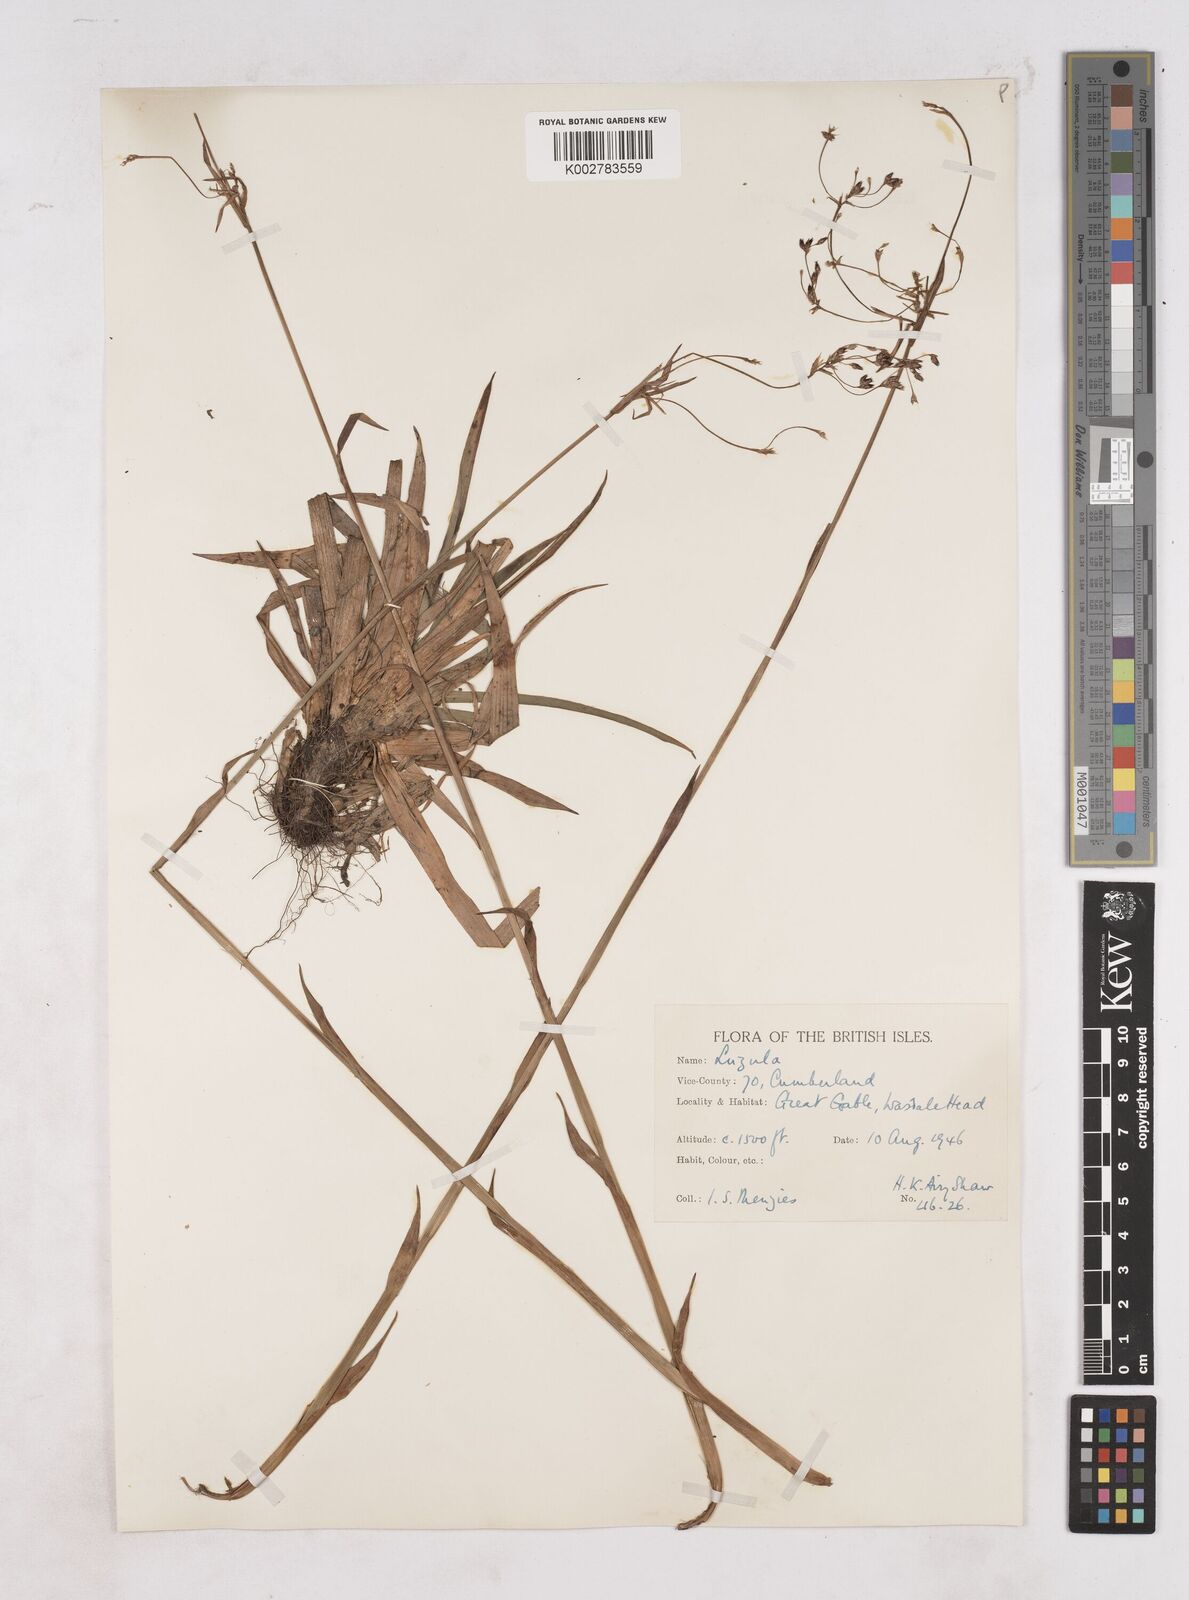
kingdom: Plantae
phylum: Tracheophyta
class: Liliopsida
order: Poales
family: Juncaceae
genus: Luzula
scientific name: Luzula
